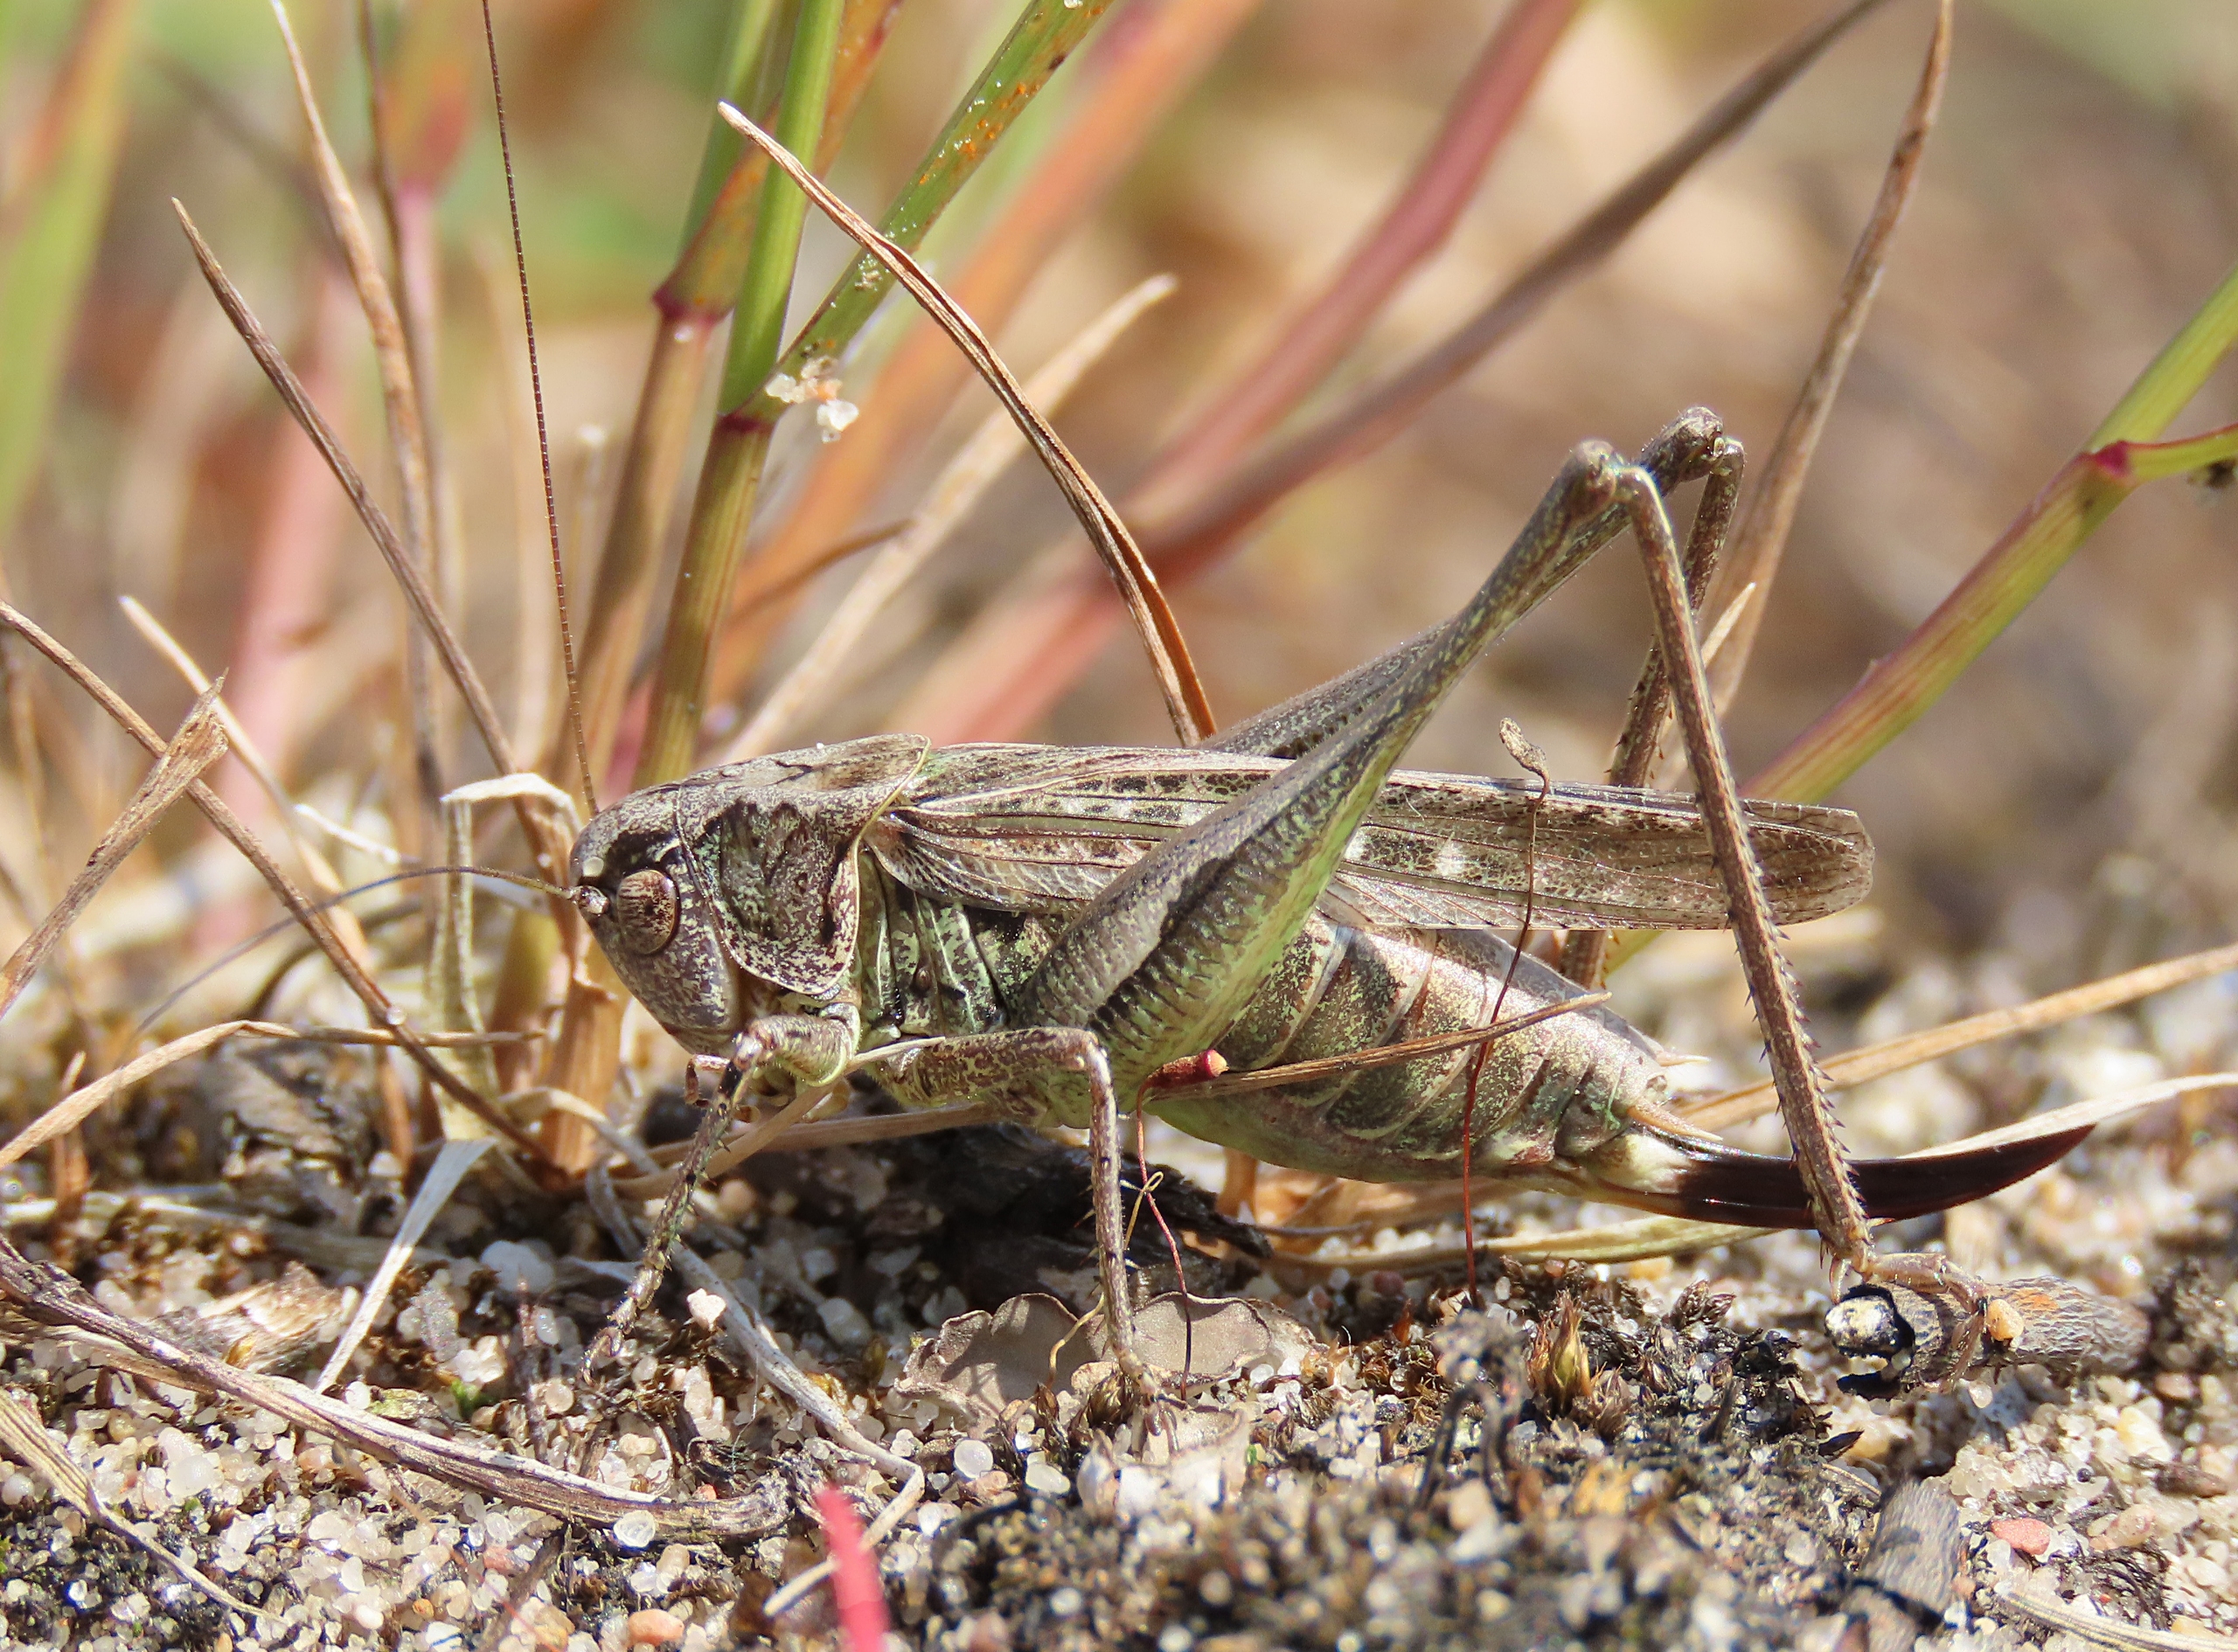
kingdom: Animalia
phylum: Arthropoda
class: Insecta
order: Orthoptera
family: Tettigoniidae
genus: Platycleis
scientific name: Platycleis albopunctata
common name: Sandgræshoppe
